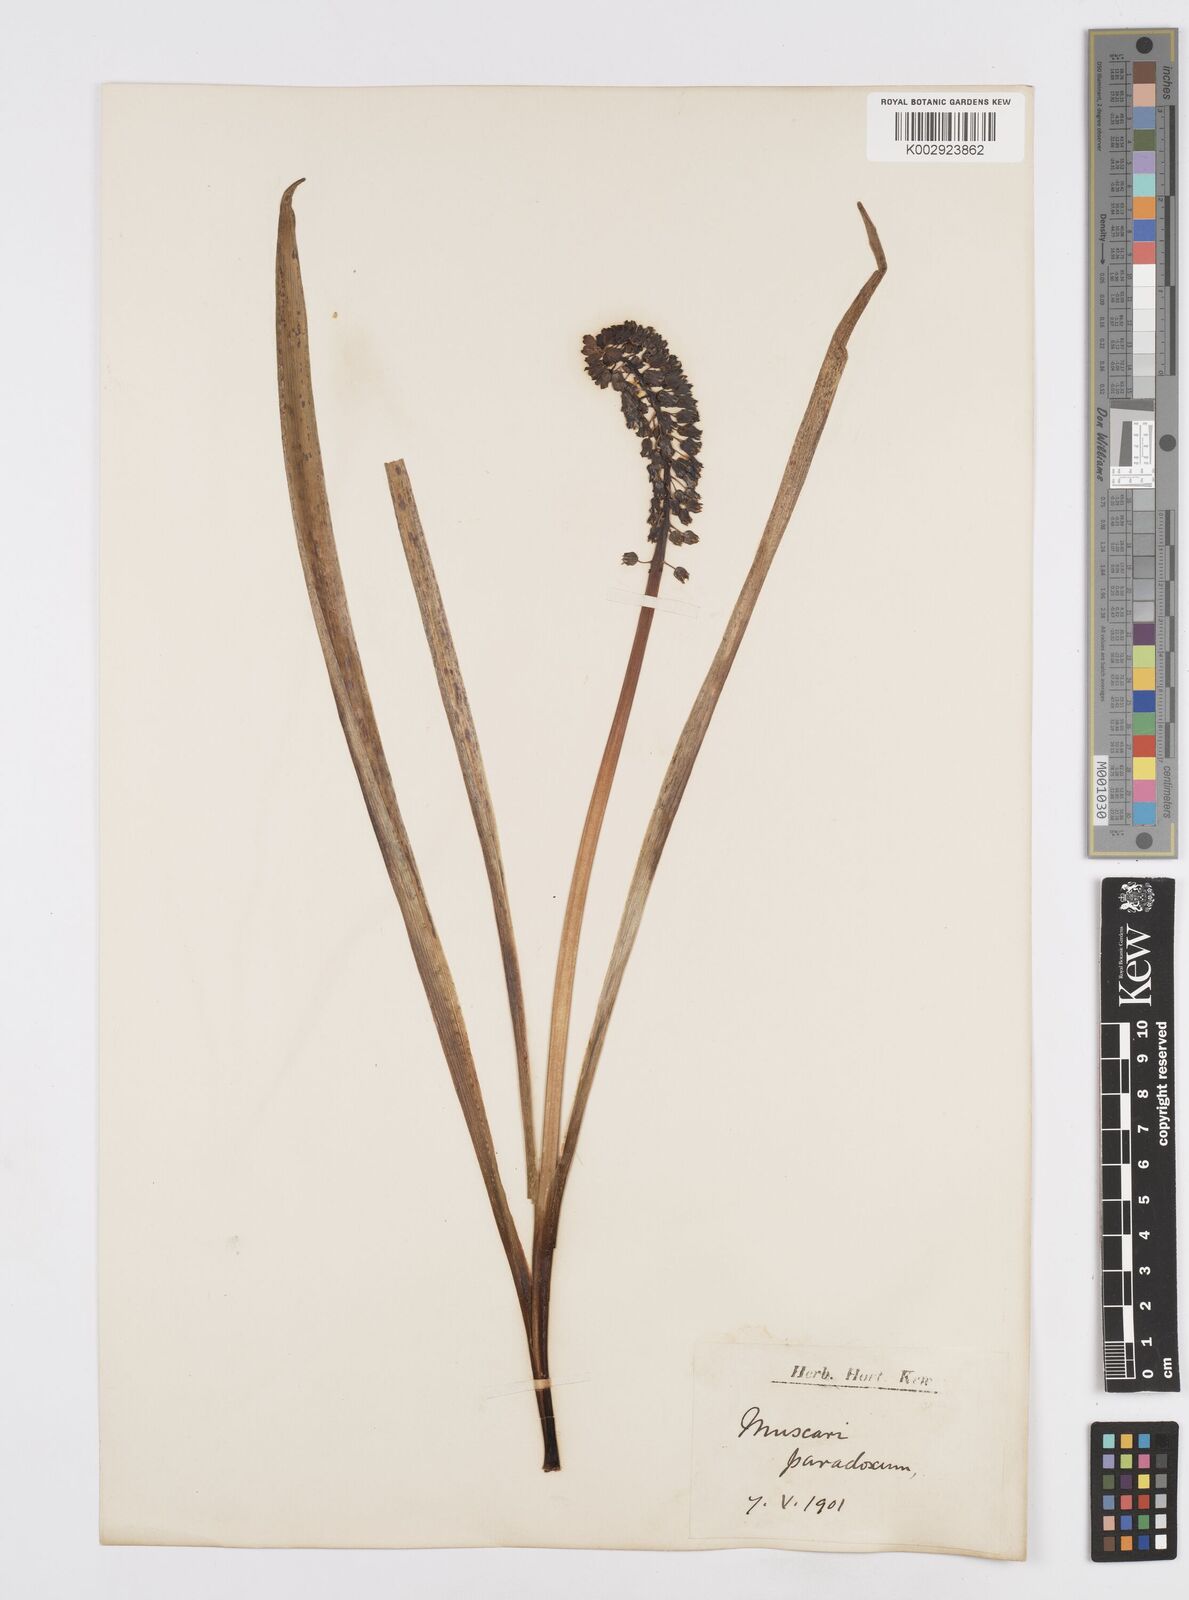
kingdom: Plantae
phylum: Tracheophyta
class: Liliopsida
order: Asparagales
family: Asparagaceae
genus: Muscari
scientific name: Muscari
